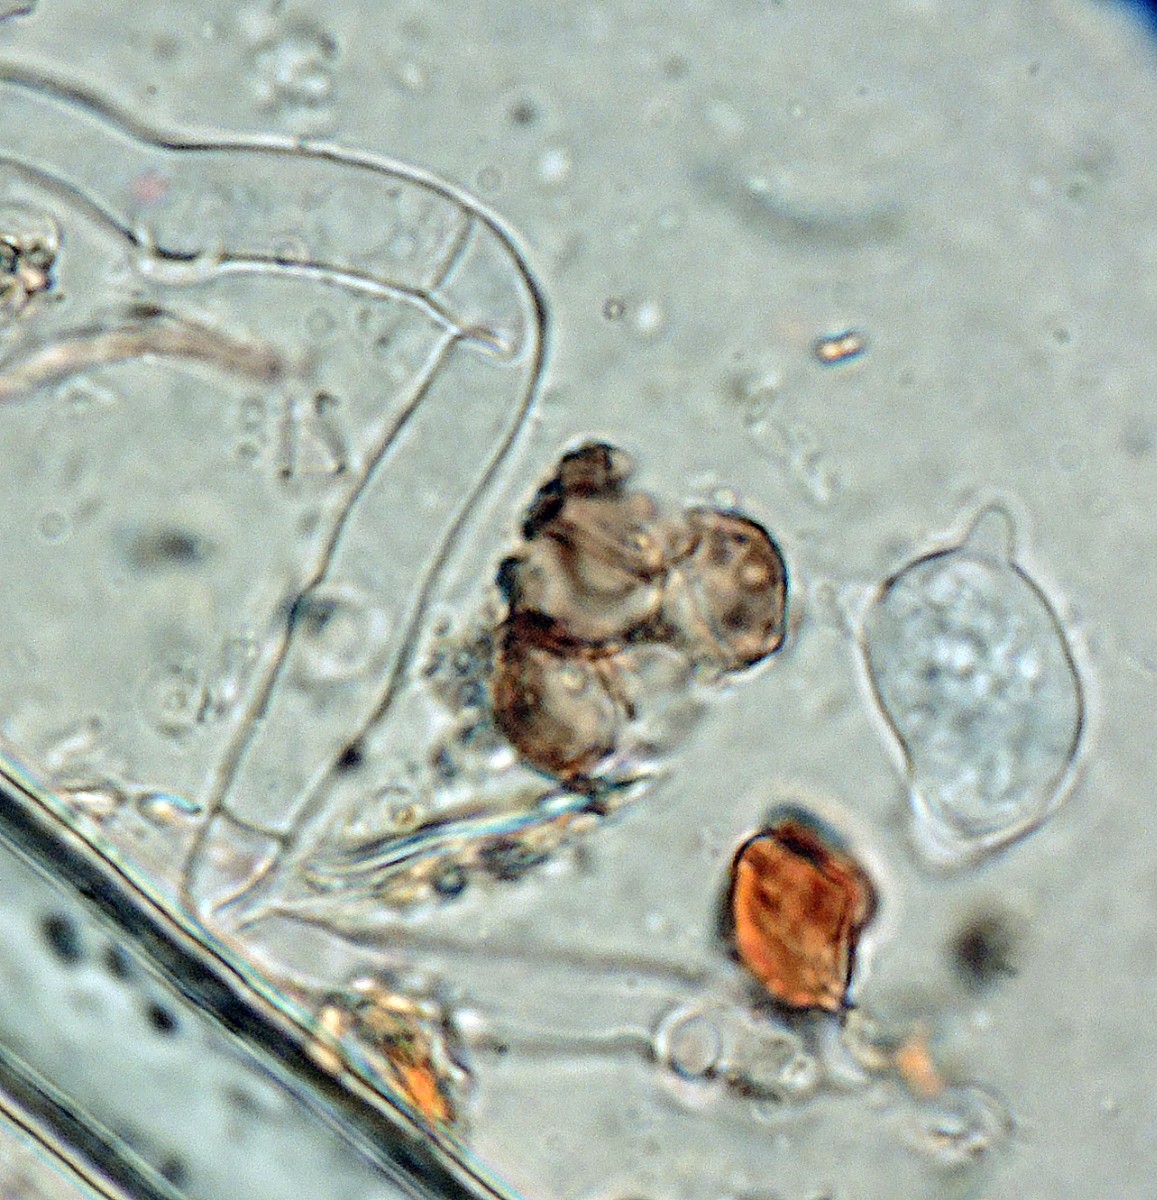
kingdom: Fungi
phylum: Basidiomycota
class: Agaricomycetes
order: Cantharellales
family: Ceratobasidiaceae
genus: Ceratobasidium
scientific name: Ceratobasidium ramicola
